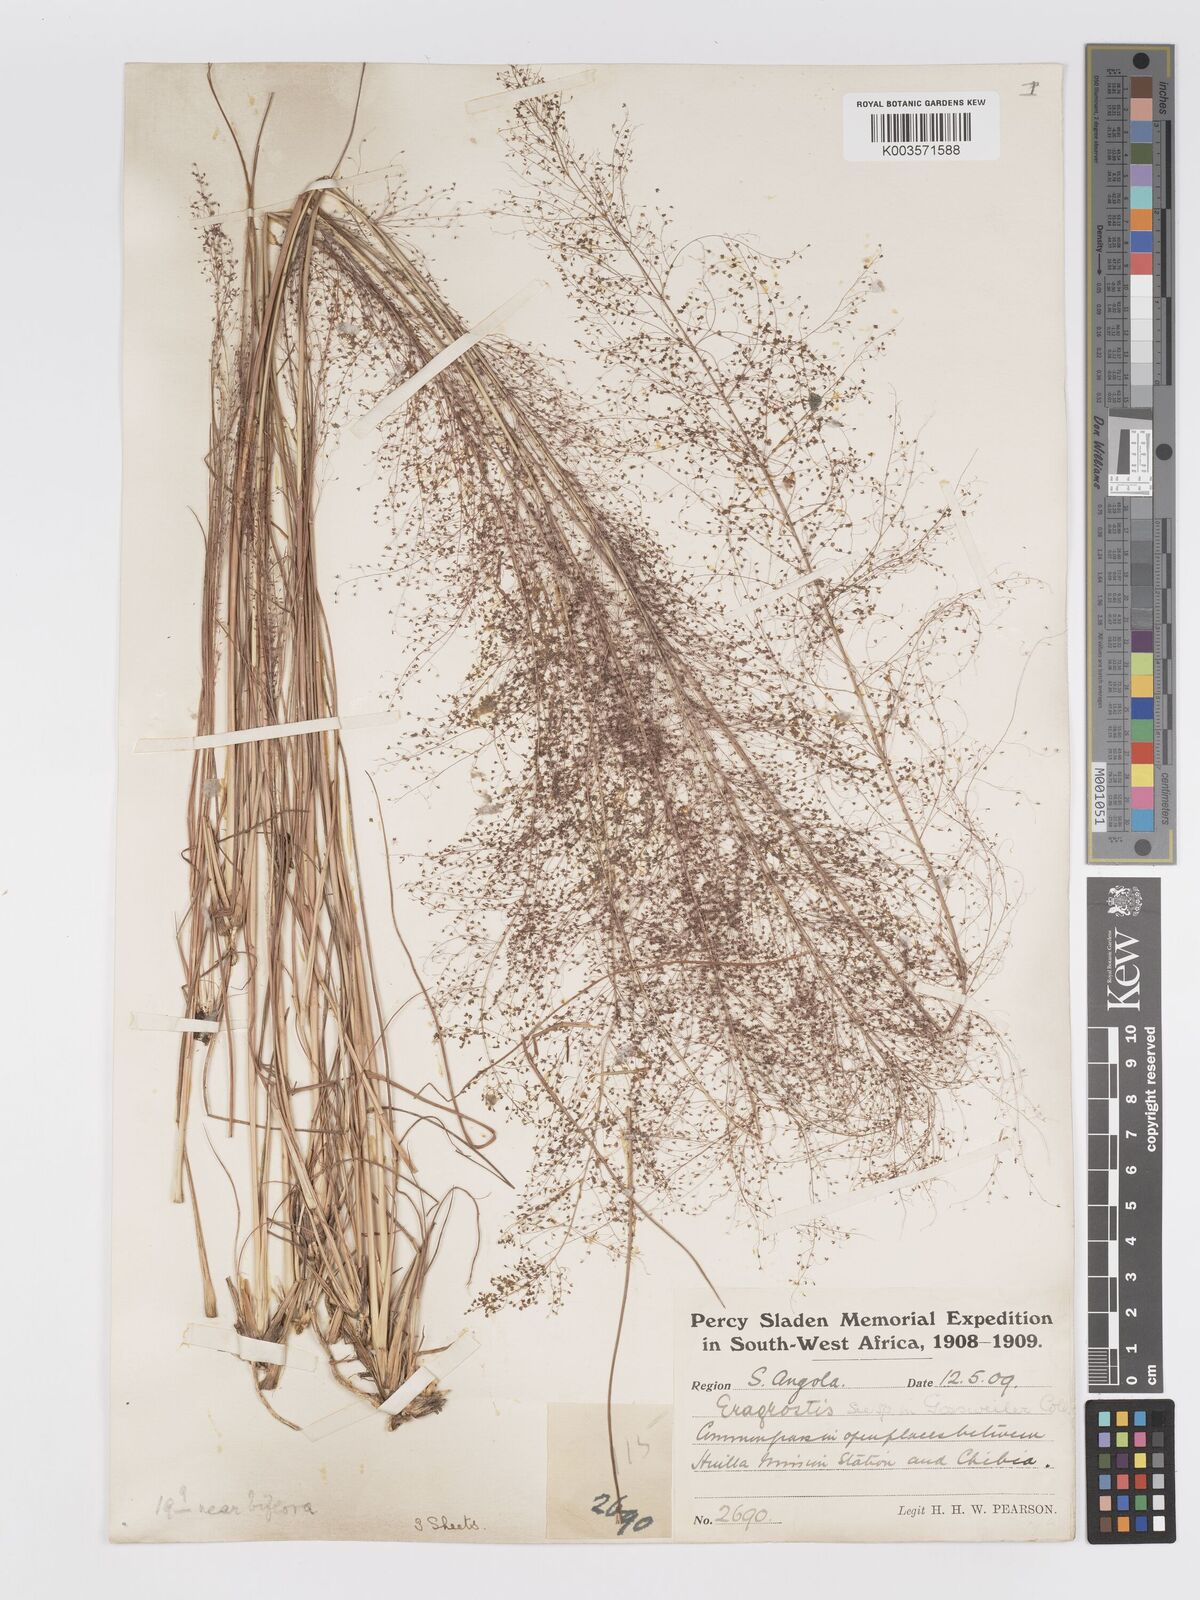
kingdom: Plantae
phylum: Tracheophyta
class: Liliopsida
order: Poales
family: Poaceae
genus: Eragrostis
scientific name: Eragrostis habrantha
